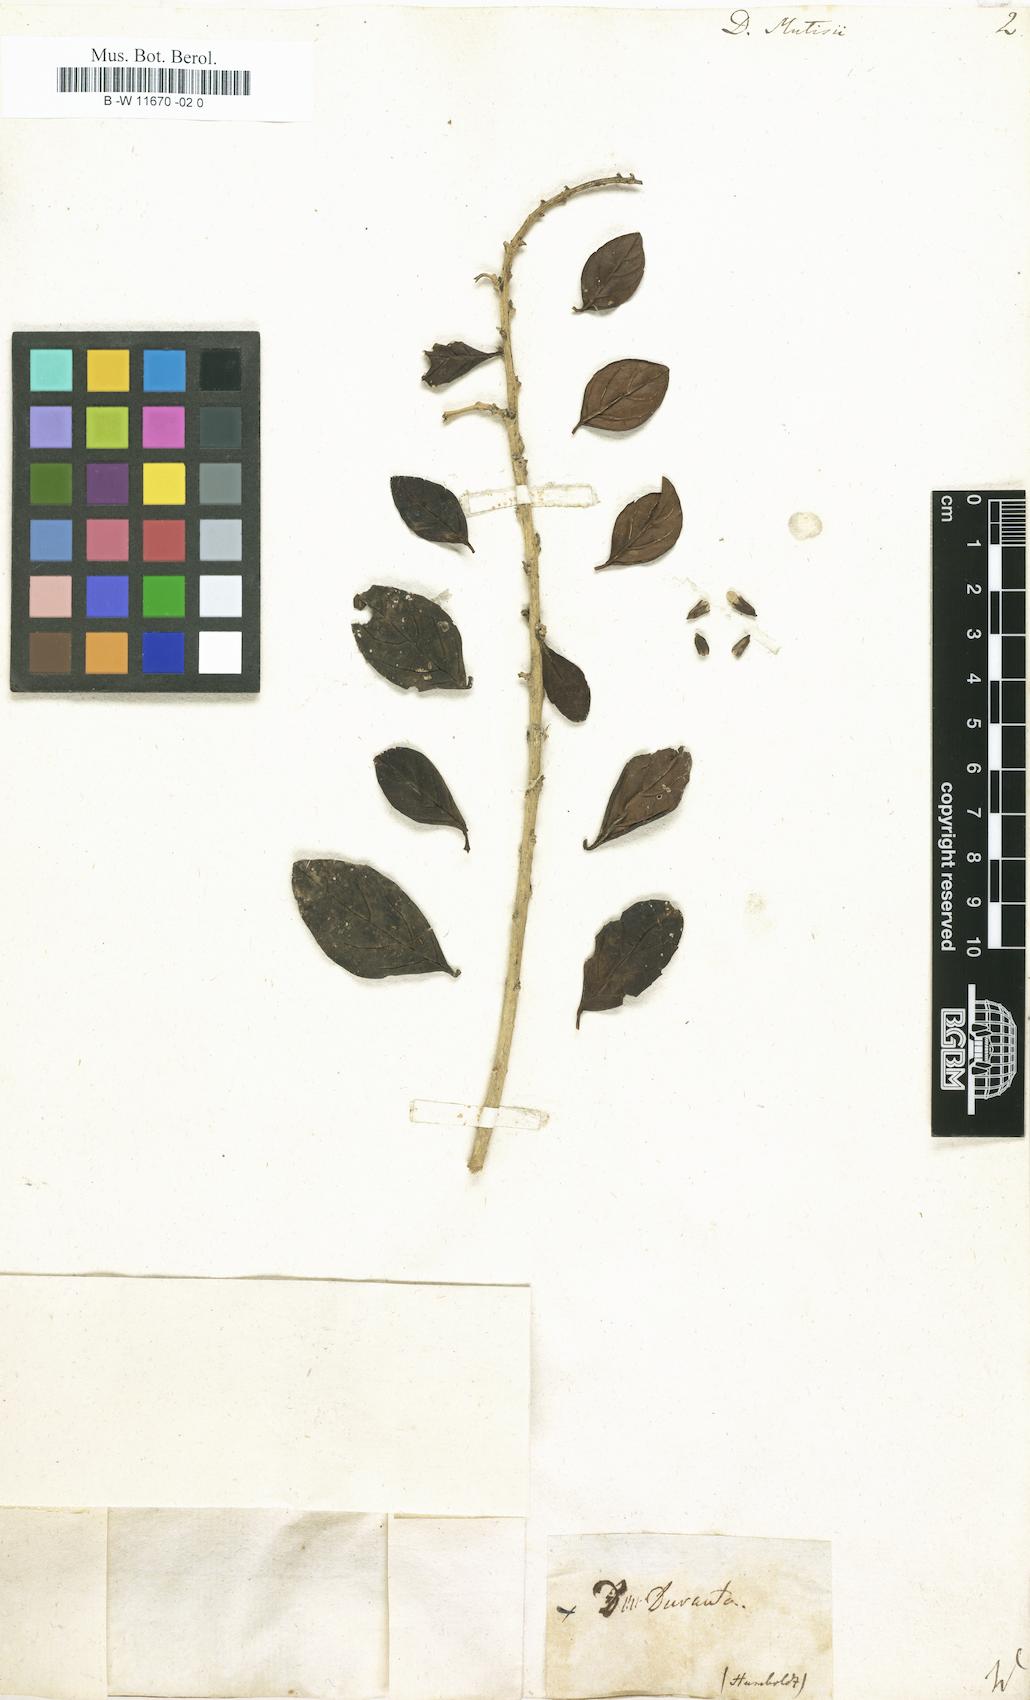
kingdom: Plantae
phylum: Tracheophyta
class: Magnoliopsida
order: Lamiales
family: Verbenaceae
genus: Duranta
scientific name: Duranta mutisii
